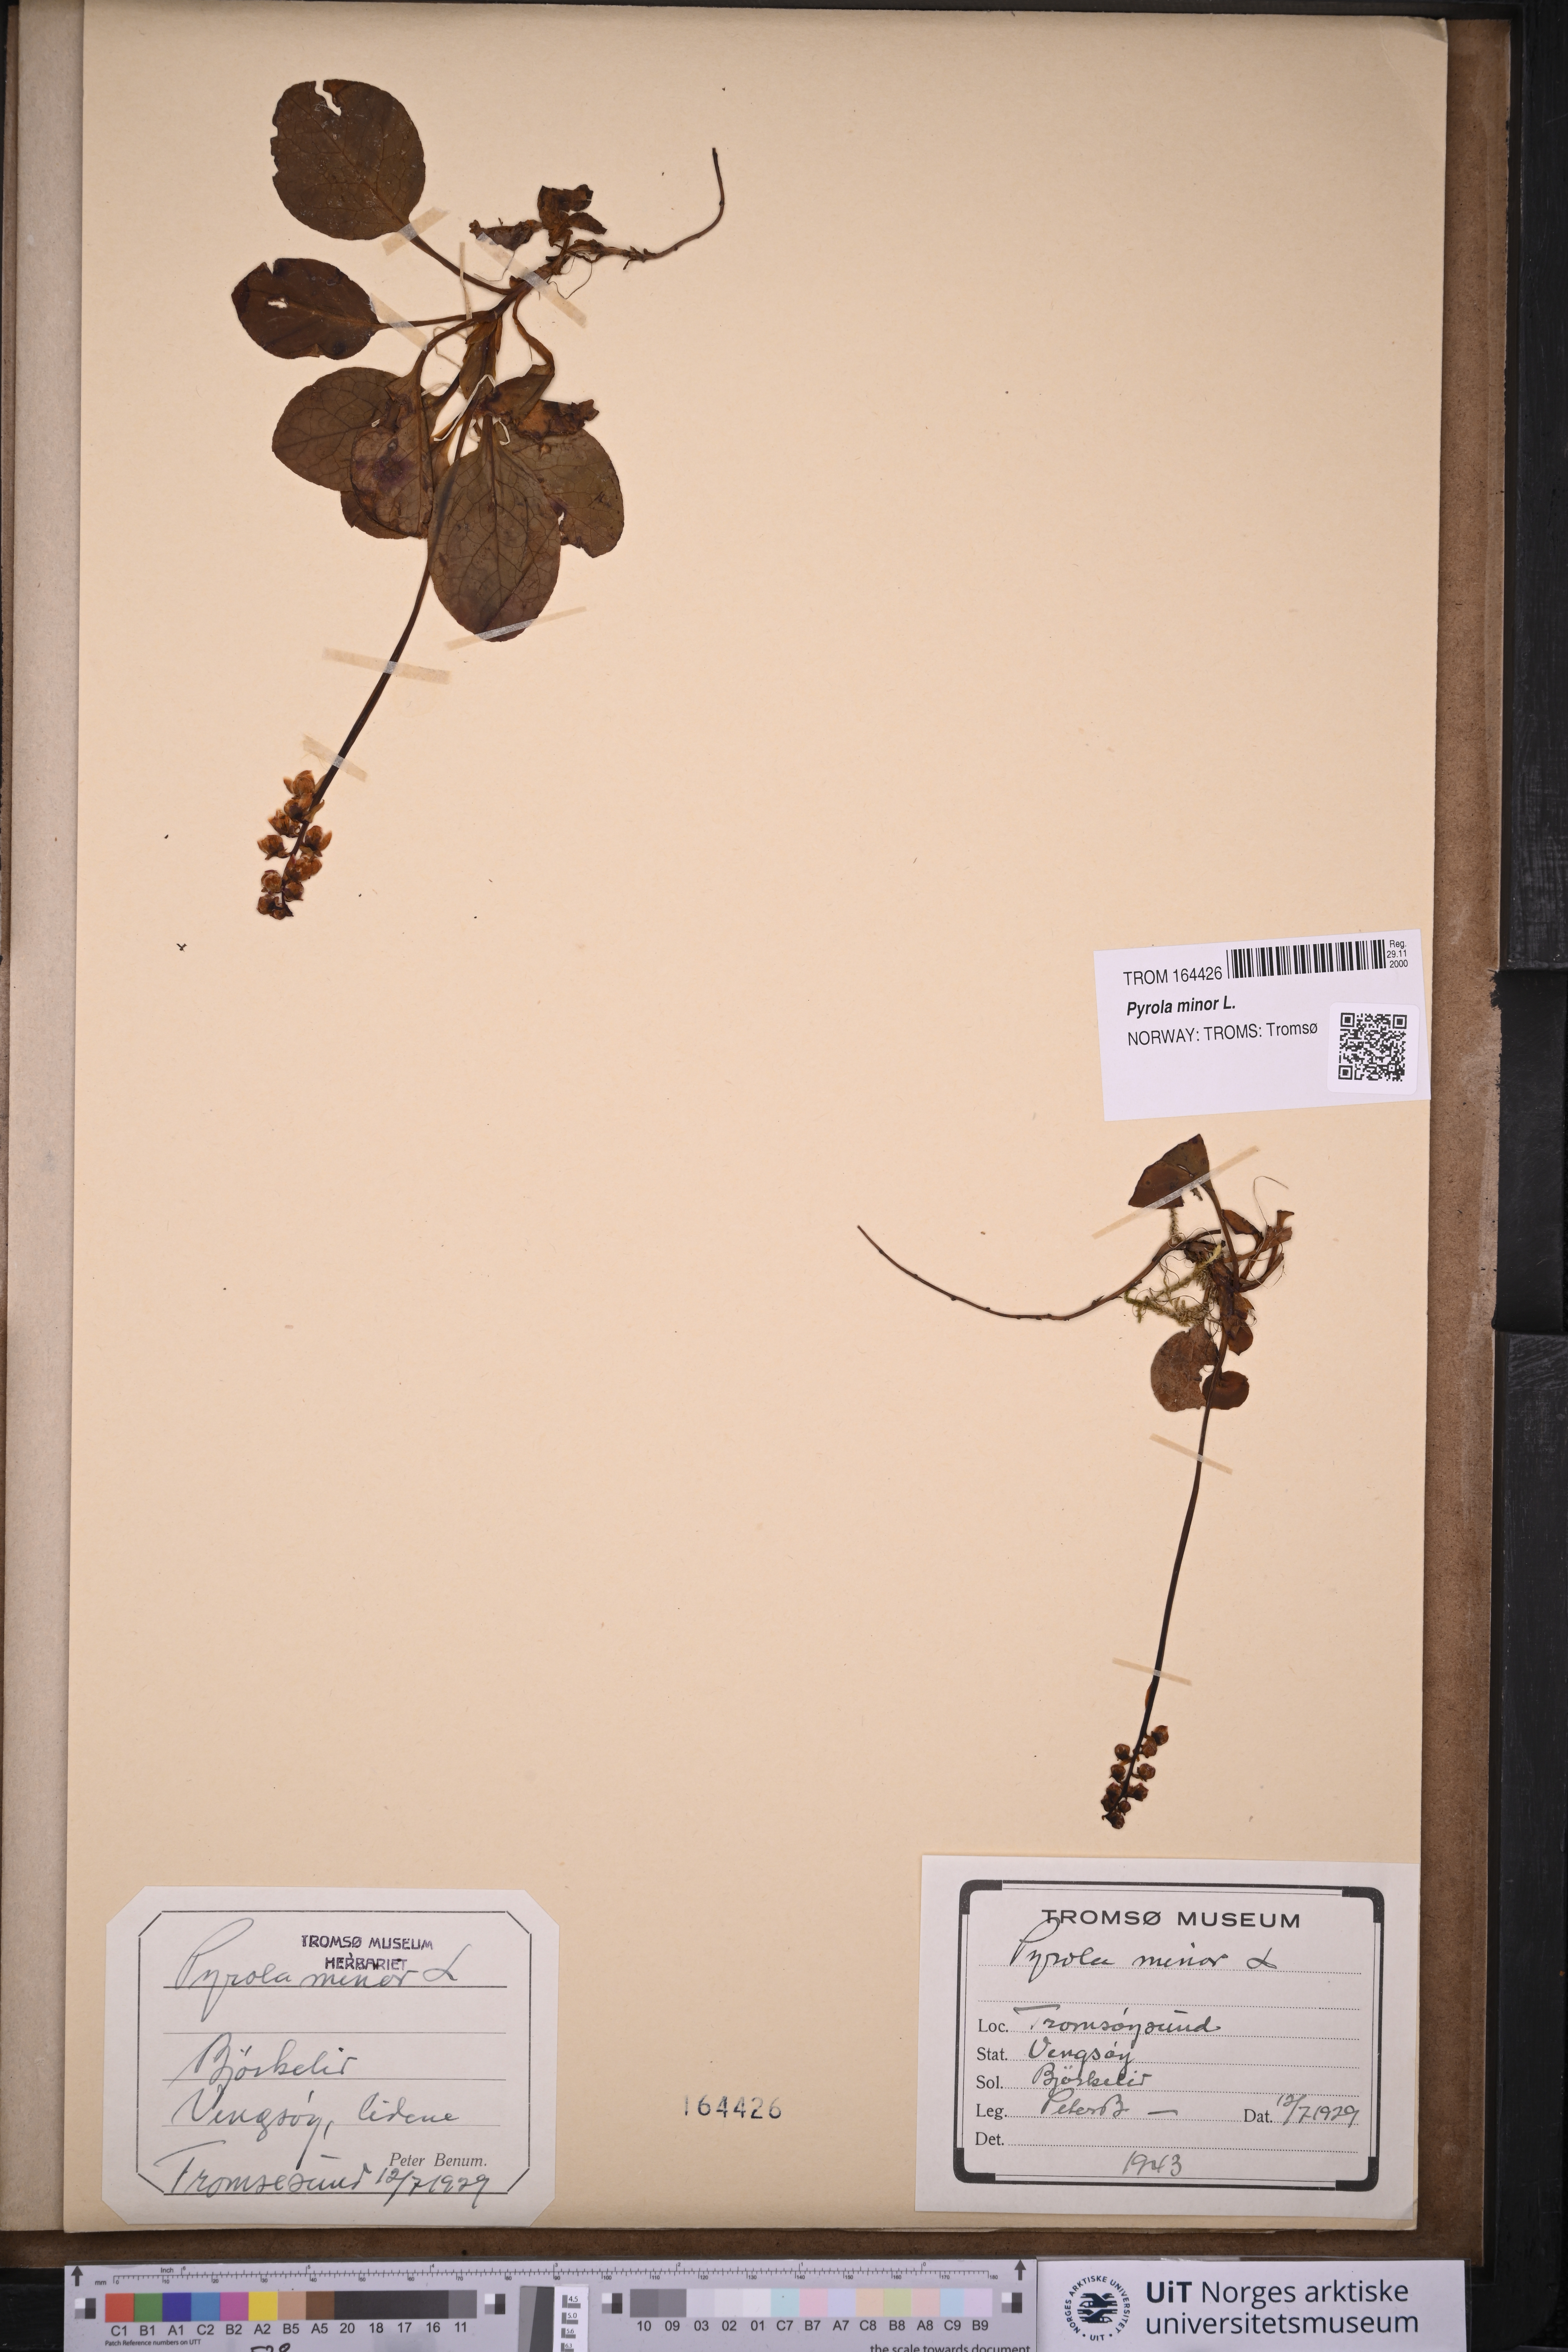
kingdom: Plantae
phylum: Tracheophyta
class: Magnoliopsida
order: Ericales
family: Ericaceae
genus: Pyrola
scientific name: Pyrola minor
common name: Common wintergreen
